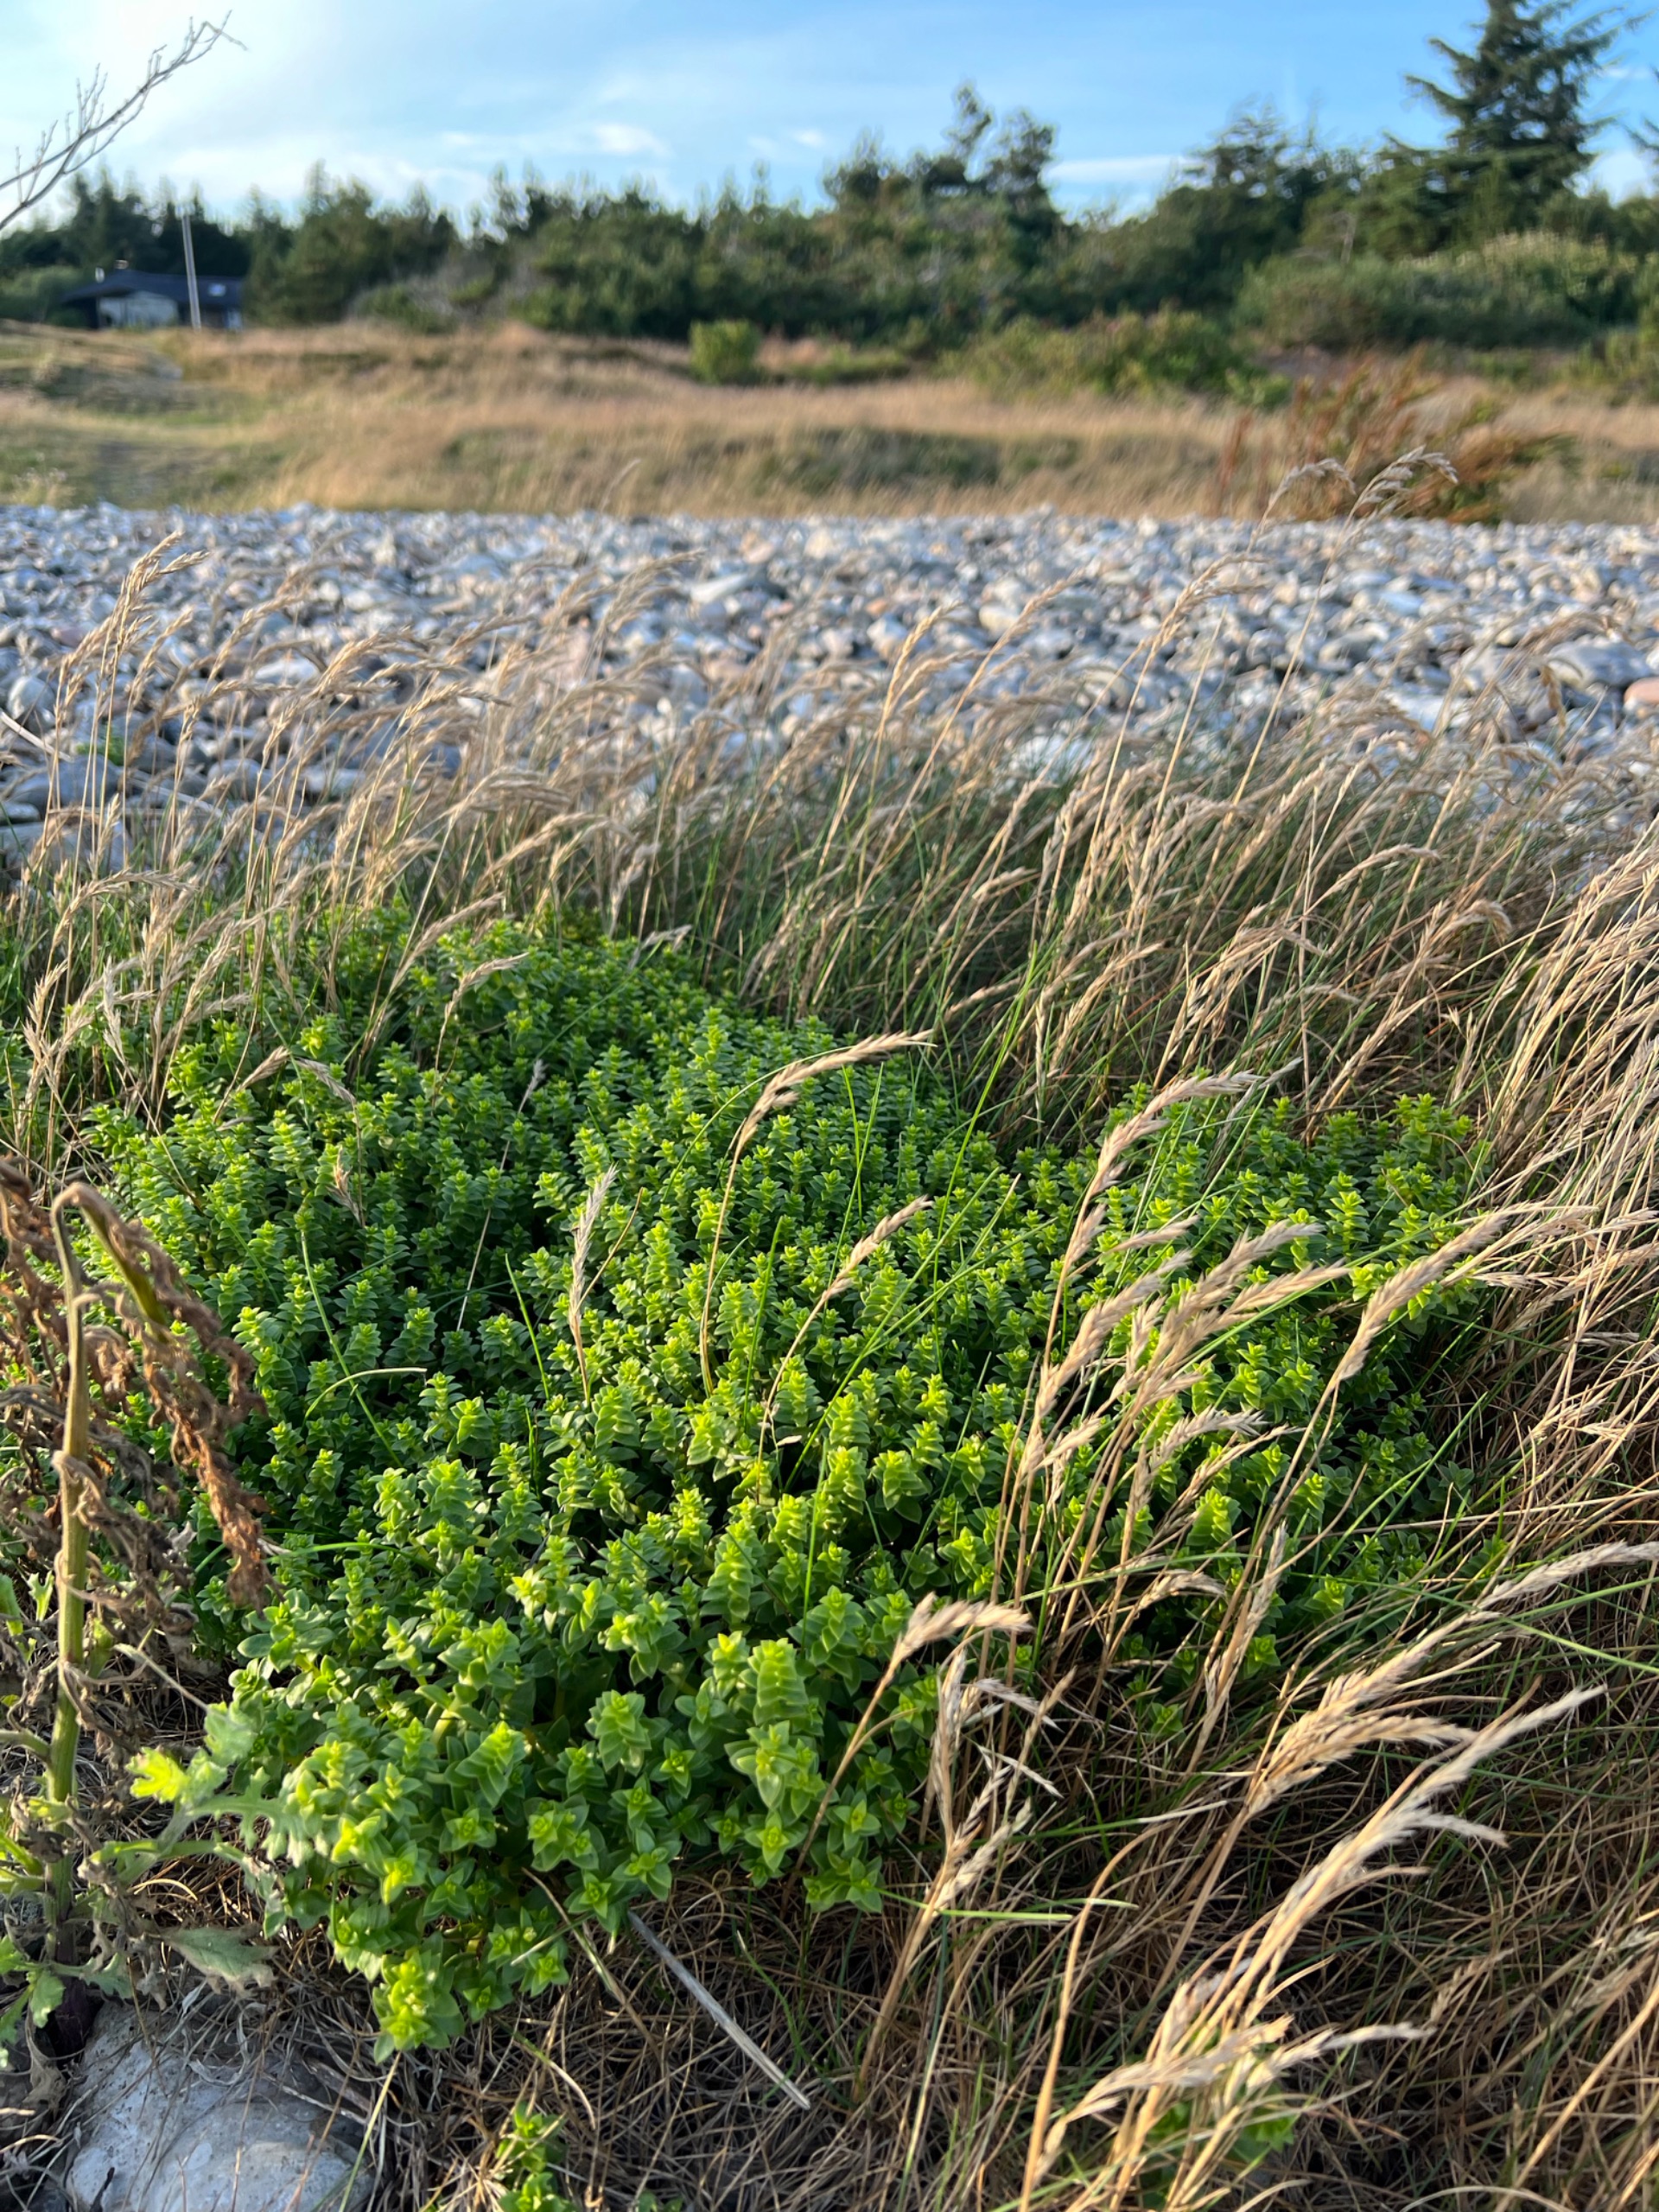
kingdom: Plantae
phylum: Tracheophyta
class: Magnoliopsida
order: Caryophyllales
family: Caryophyllaceae
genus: Honckenya
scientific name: Honckenya peploides
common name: Strandarve
